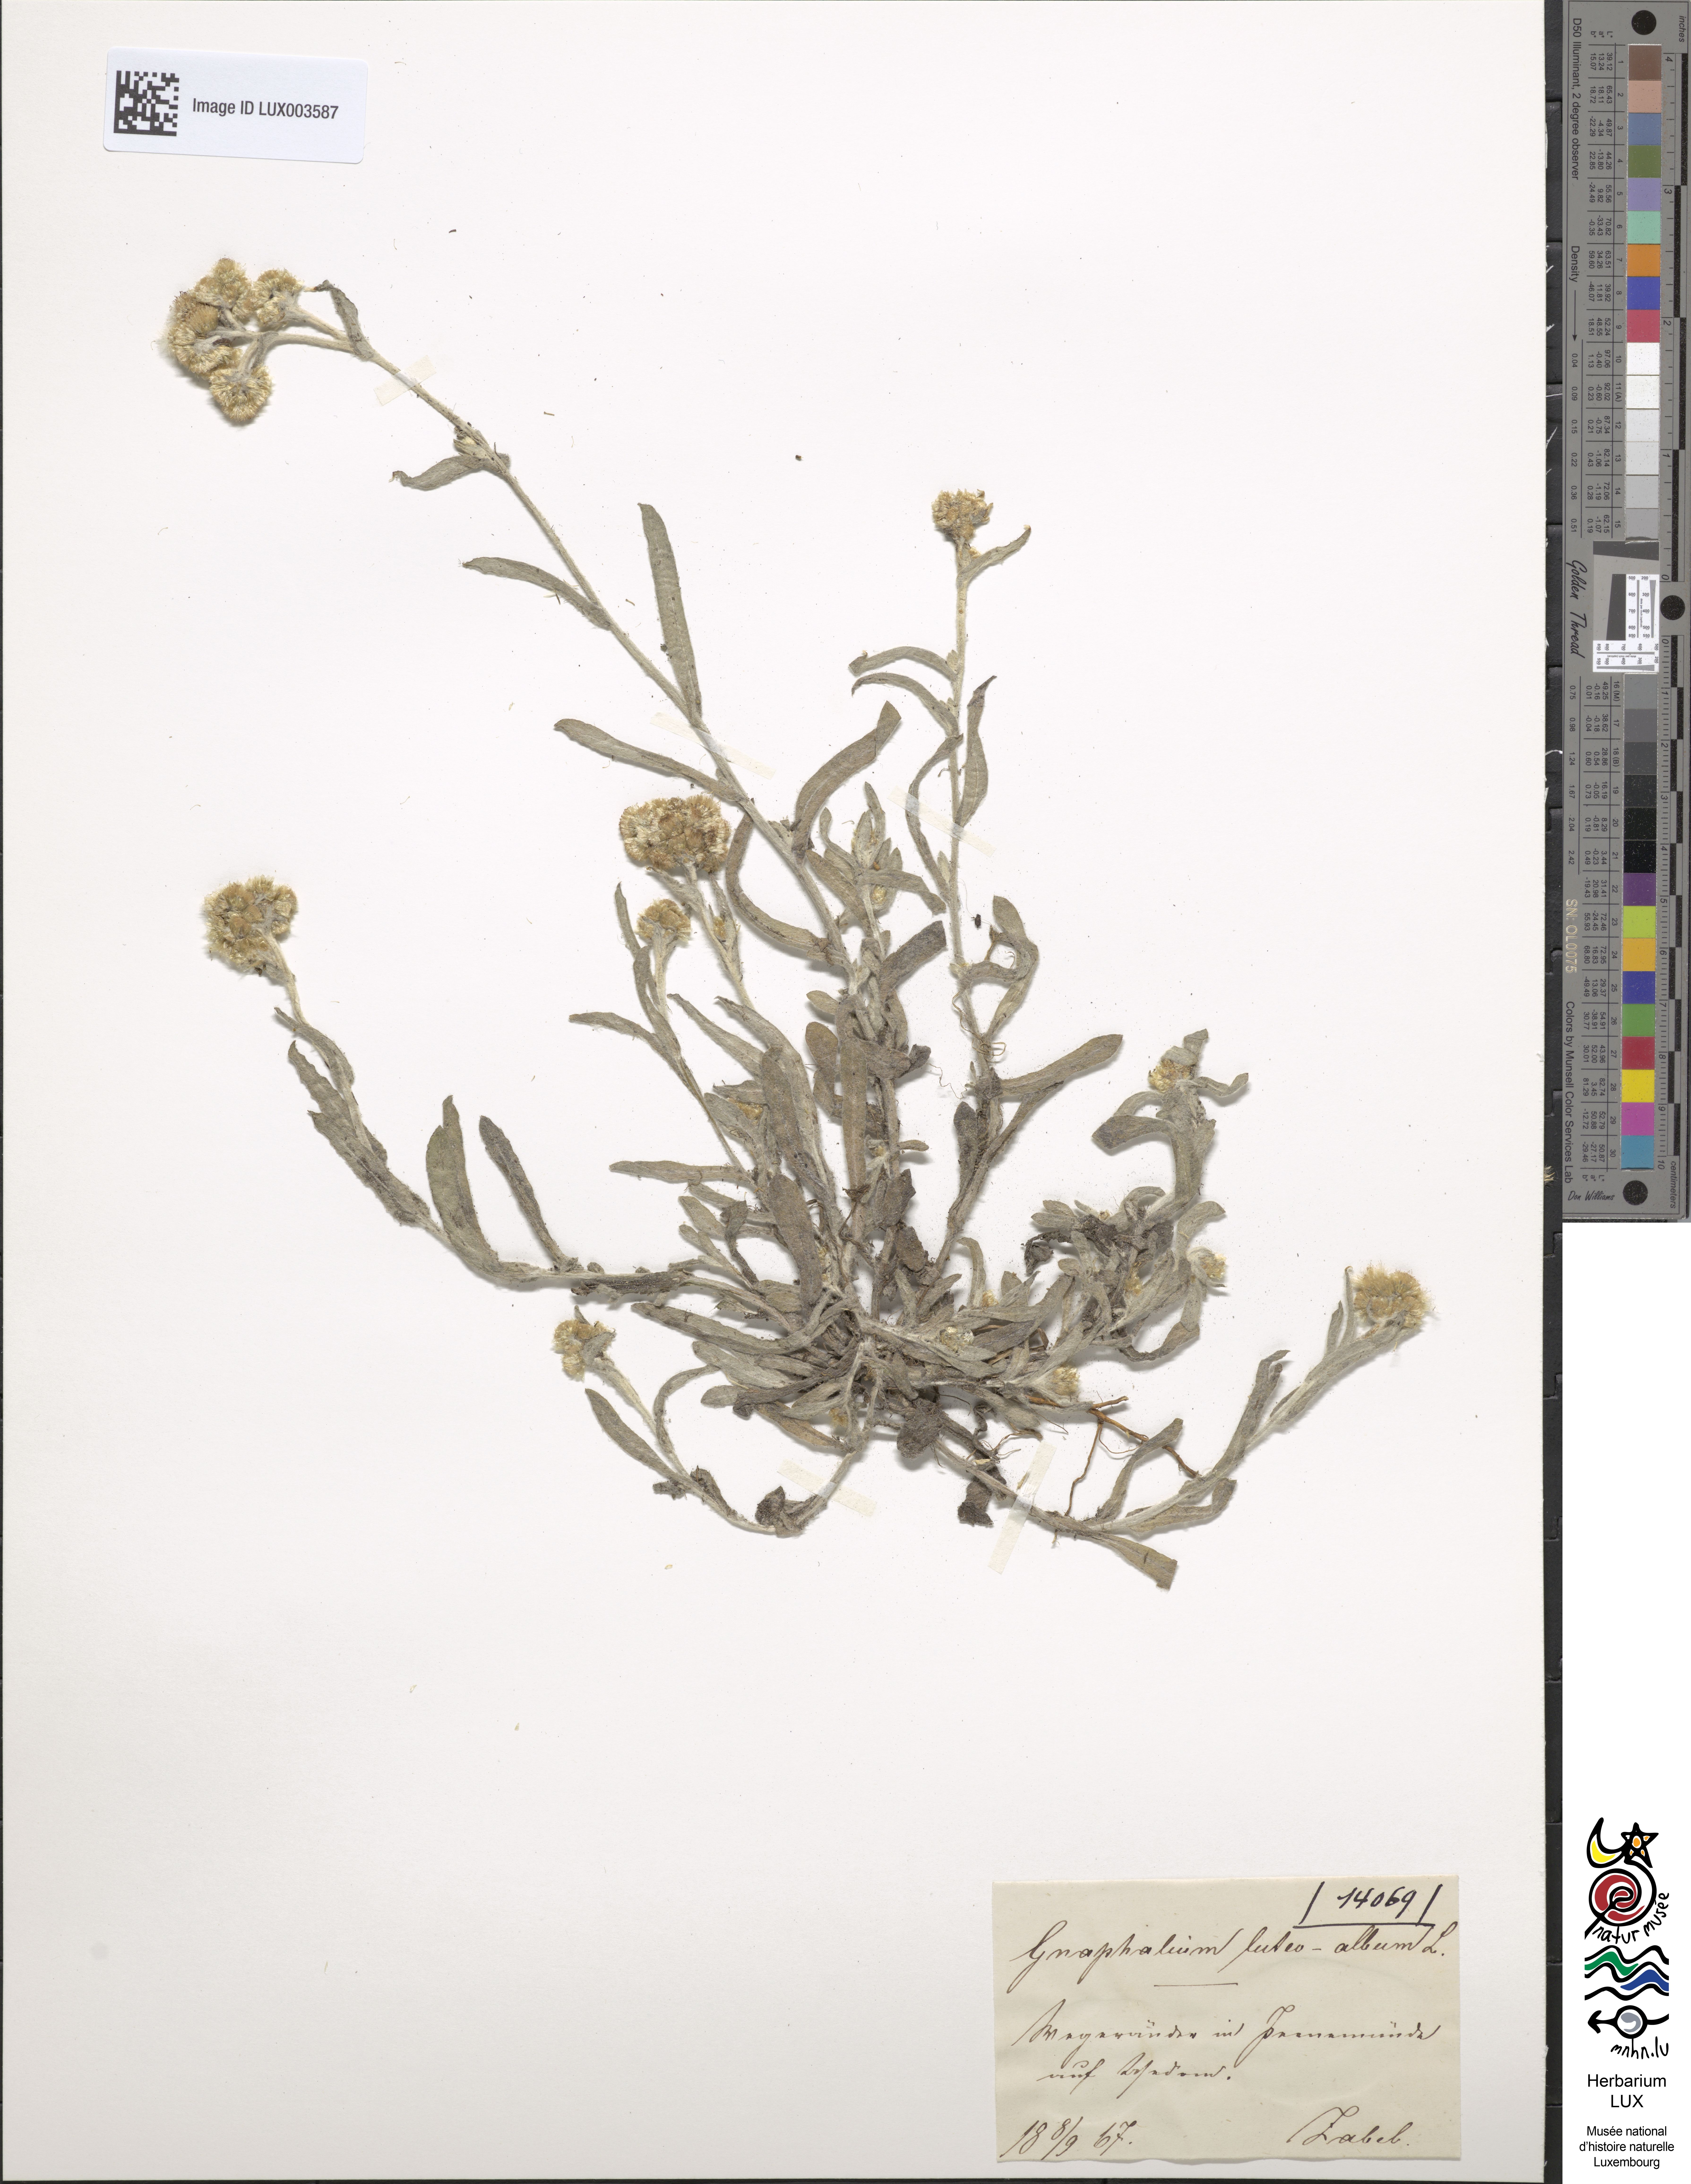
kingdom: Plantae
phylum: Tracheophyta
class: Magnoliopsida
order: Asterales
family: Asteraceae
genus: Helichrysum
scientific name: Helichrysum luteoalbum
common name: Daisy
